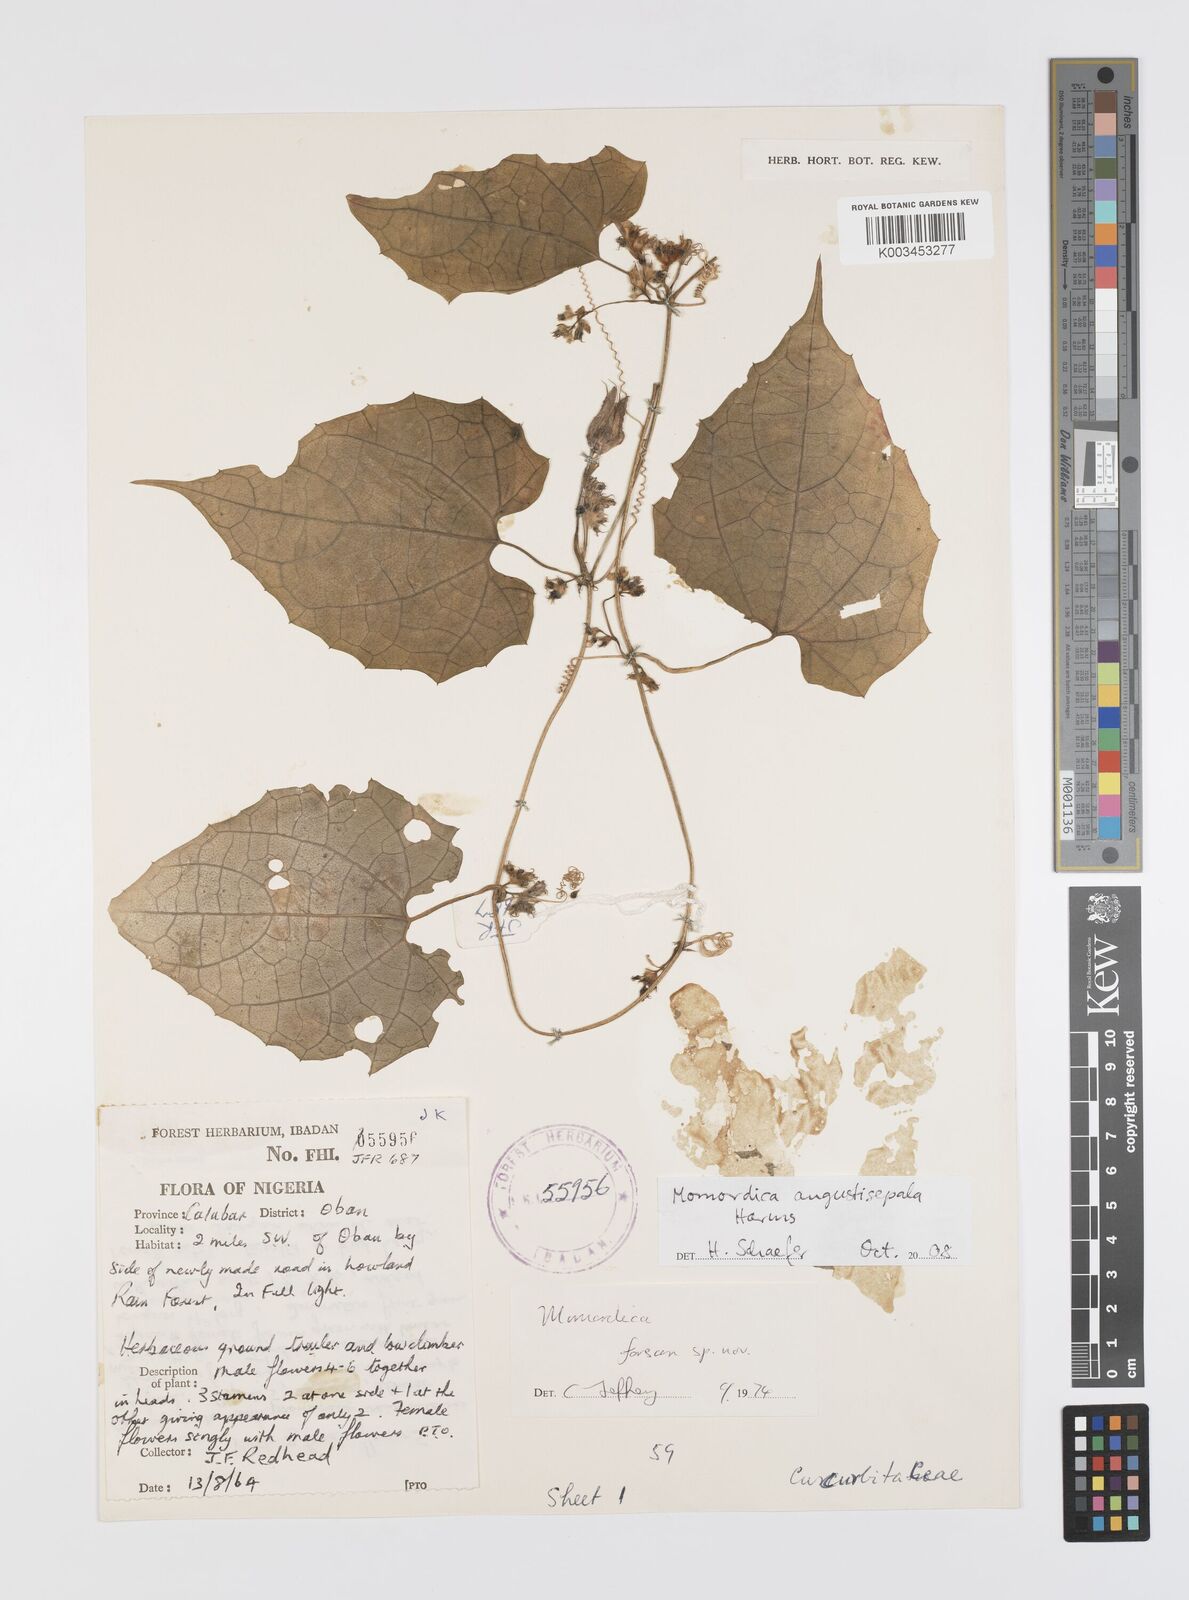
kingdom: Plantae
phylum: Tracheophyta
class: Magnoliopsida
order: Cucurbitales
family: Cucurbitaceae
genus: Momordica
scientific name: Momordica angustisepala
